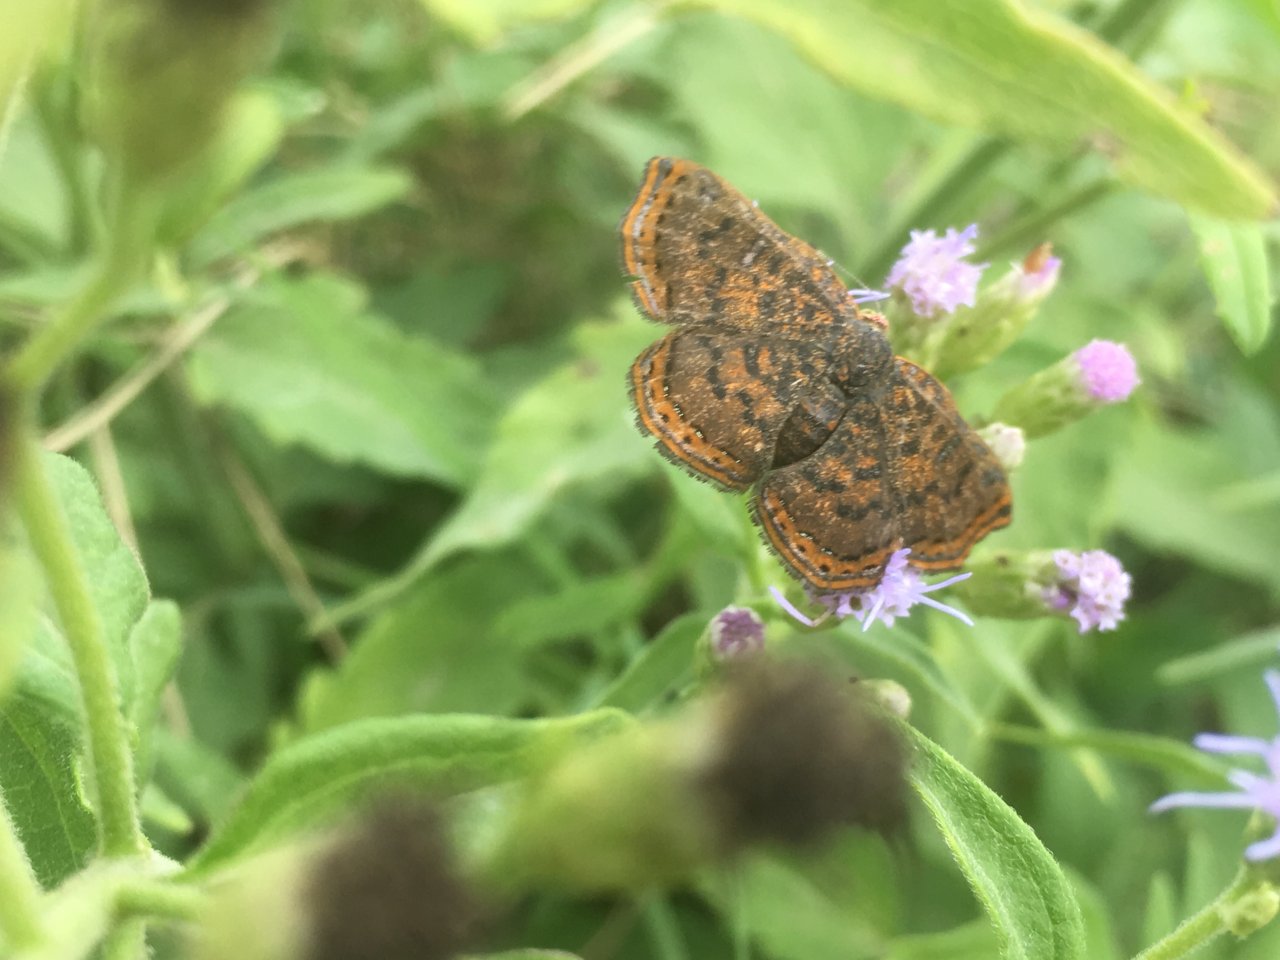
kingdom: Animalia
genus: Caria
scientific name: Caria ino
